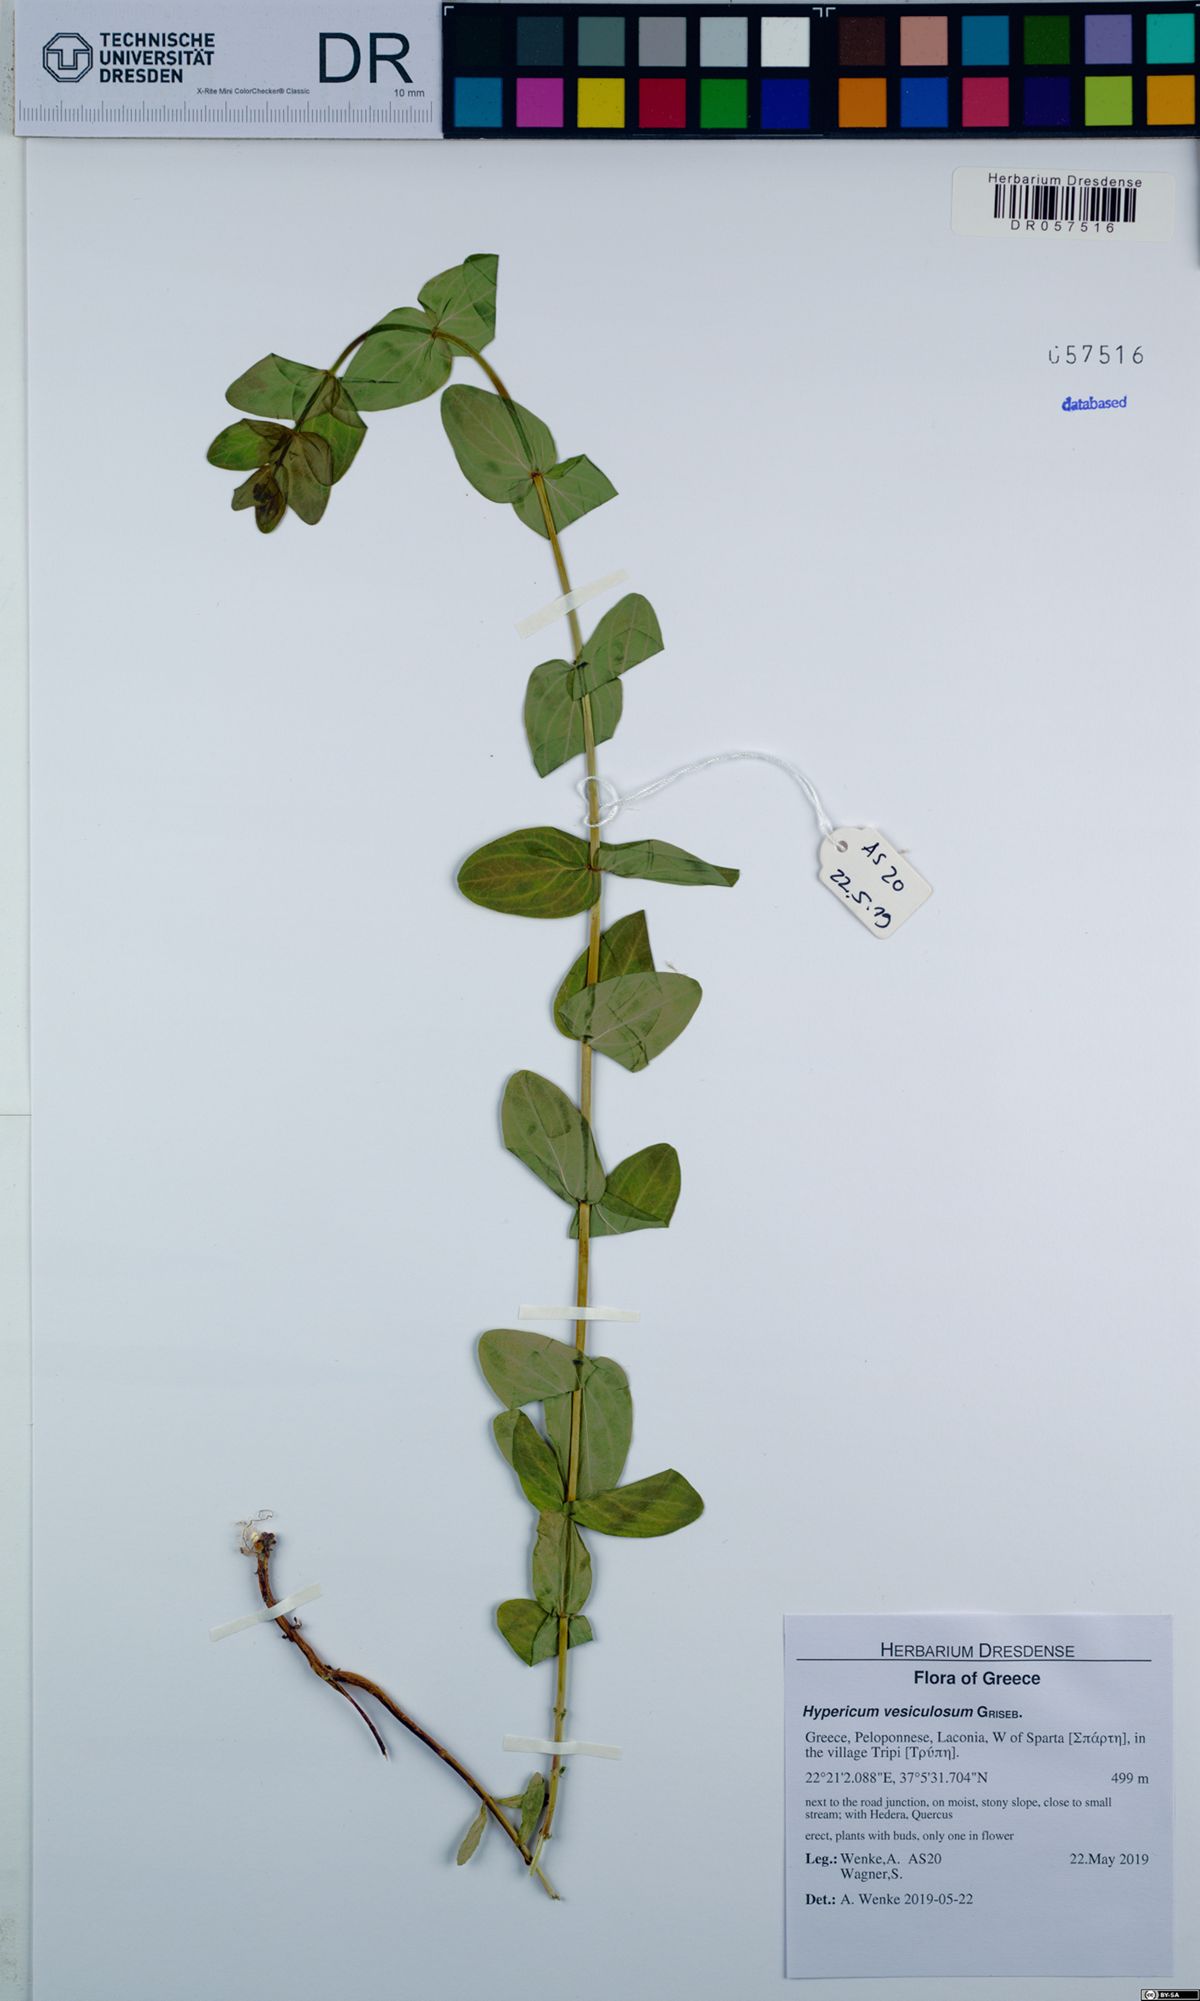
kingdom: Plantae
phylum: Tracheophyta
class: Magnoliopsida
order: Malpighiales
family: Hypericaceae
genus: Hypericum
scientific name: Hypericum vesiculosum
